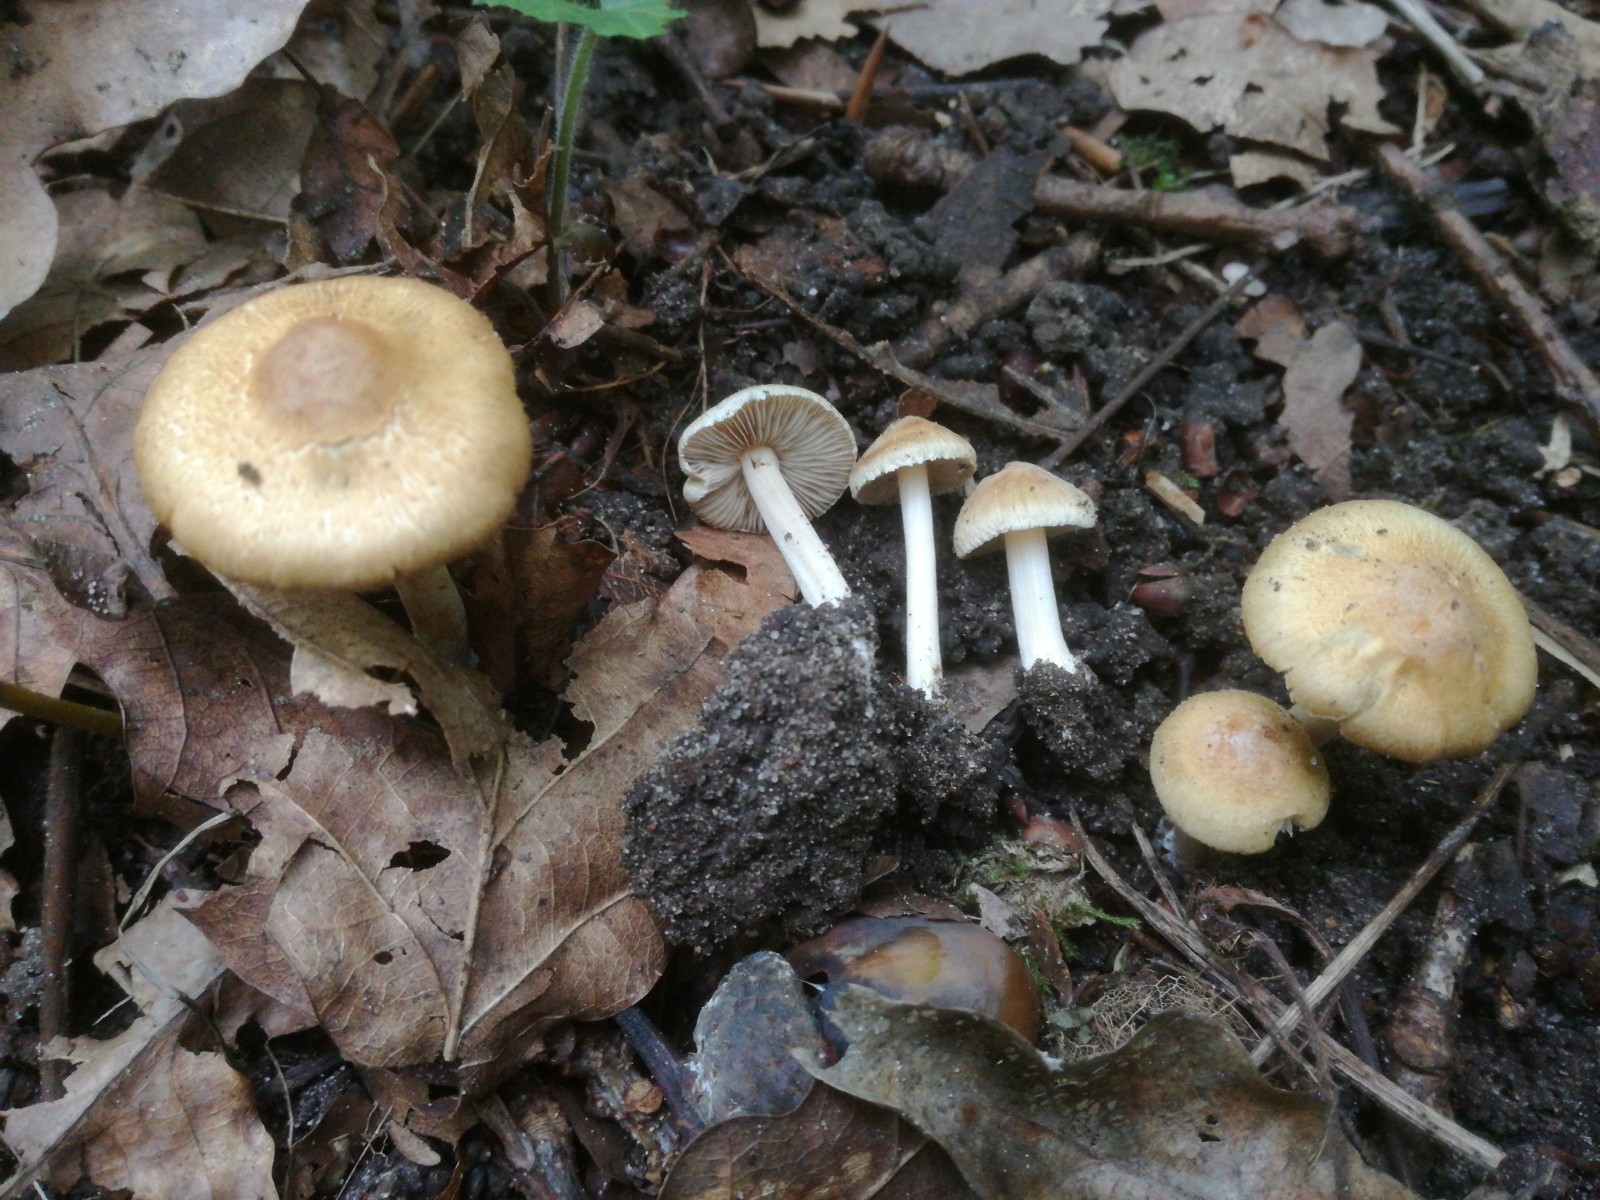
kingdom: Fungi
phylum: Basidiomycota
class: Agaricomycetes
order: Agaricales
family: Inocybaceae
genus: Inocybe
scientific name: Inocybe
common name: trævlhat
